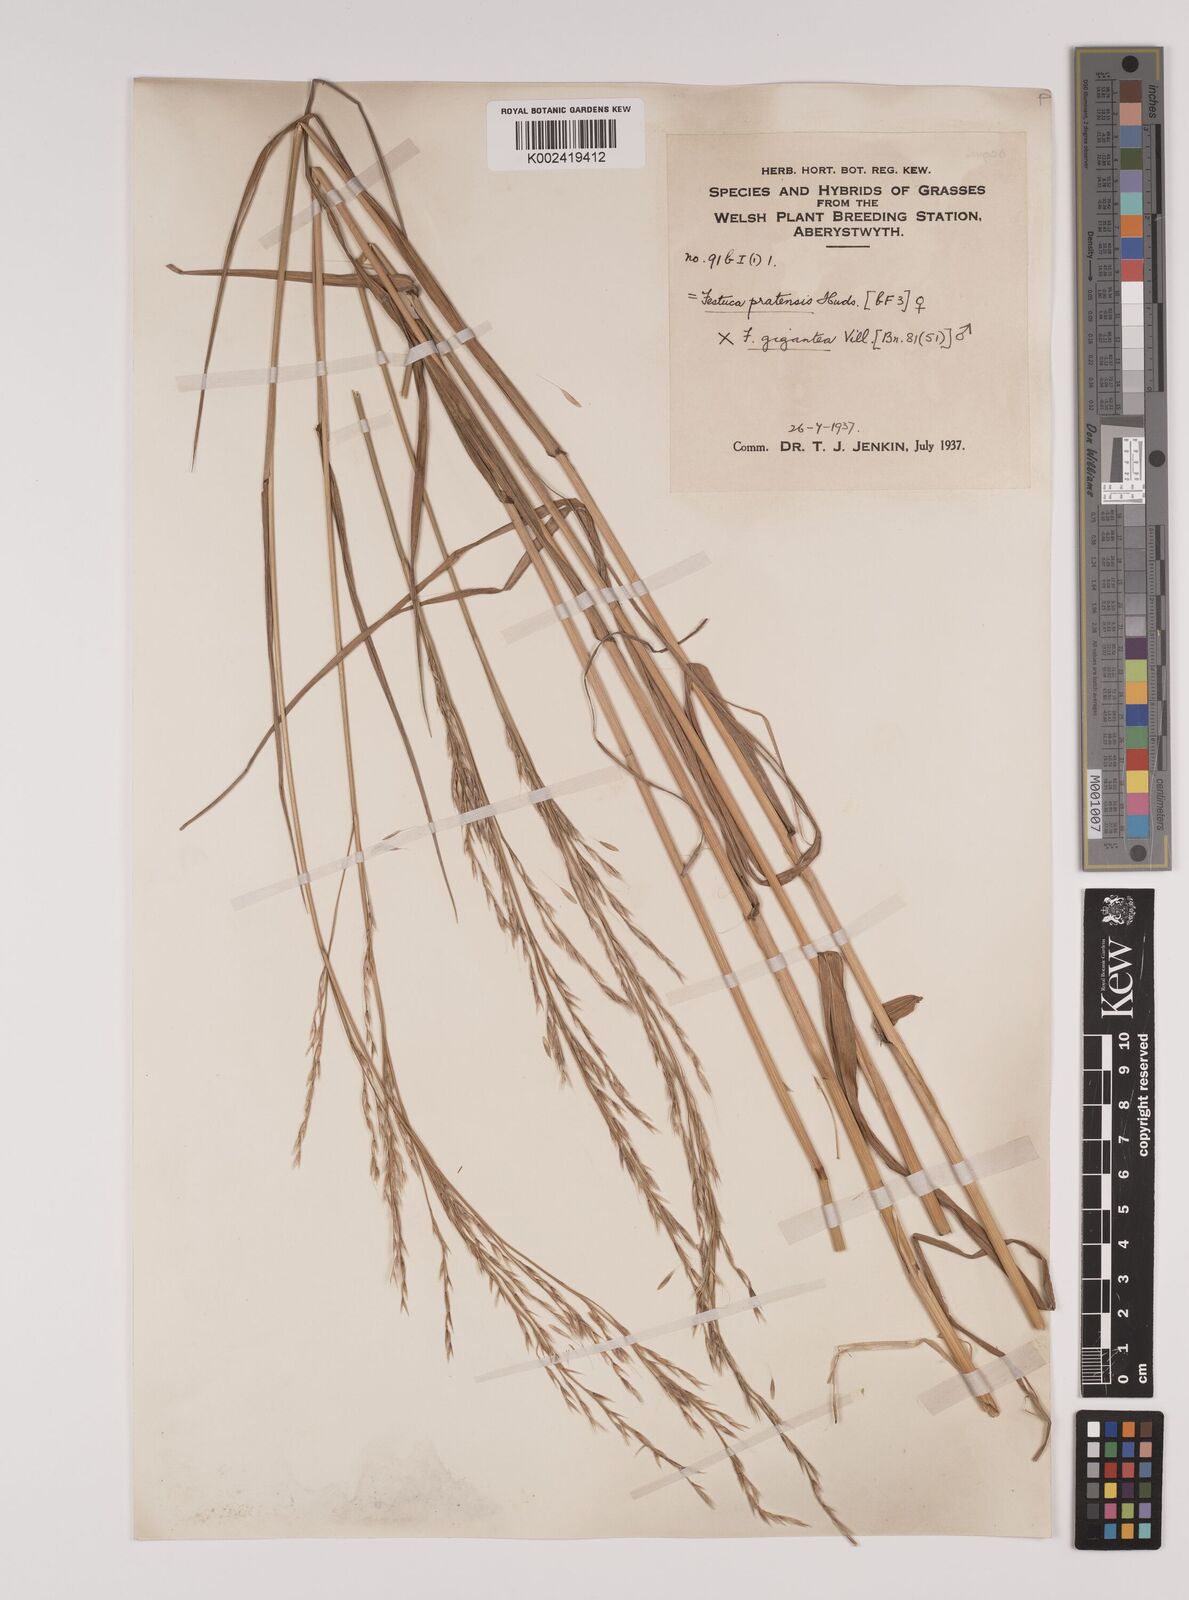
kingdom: Plantae
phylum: Tracheophyta
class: Liliopsida
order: Poales
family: Poaceae
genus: Lolium
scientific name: Lolium giganteum
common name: Giant fescue
